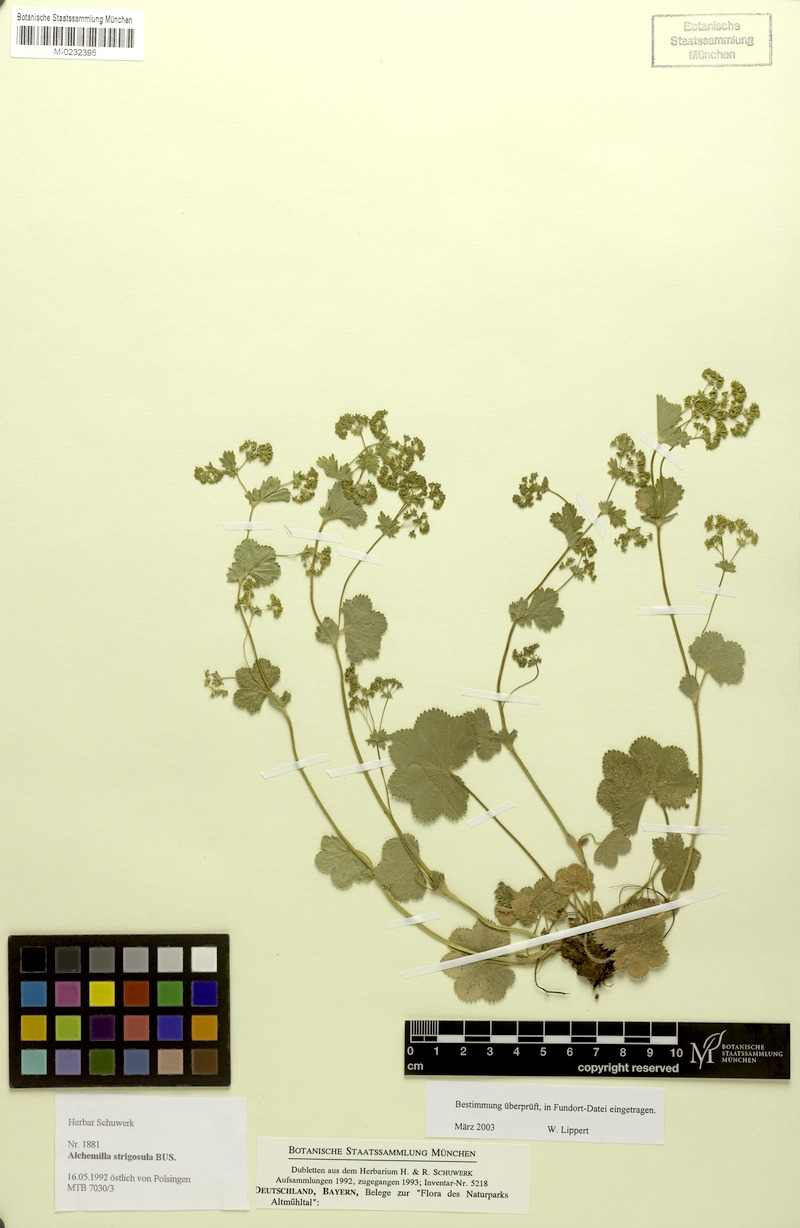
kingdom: Plantae
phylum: Tracheophyta
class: Magnoliopsida
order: Rosales
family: Rosaceae
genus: Alchemilla
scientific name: Alchemilla strigosula
